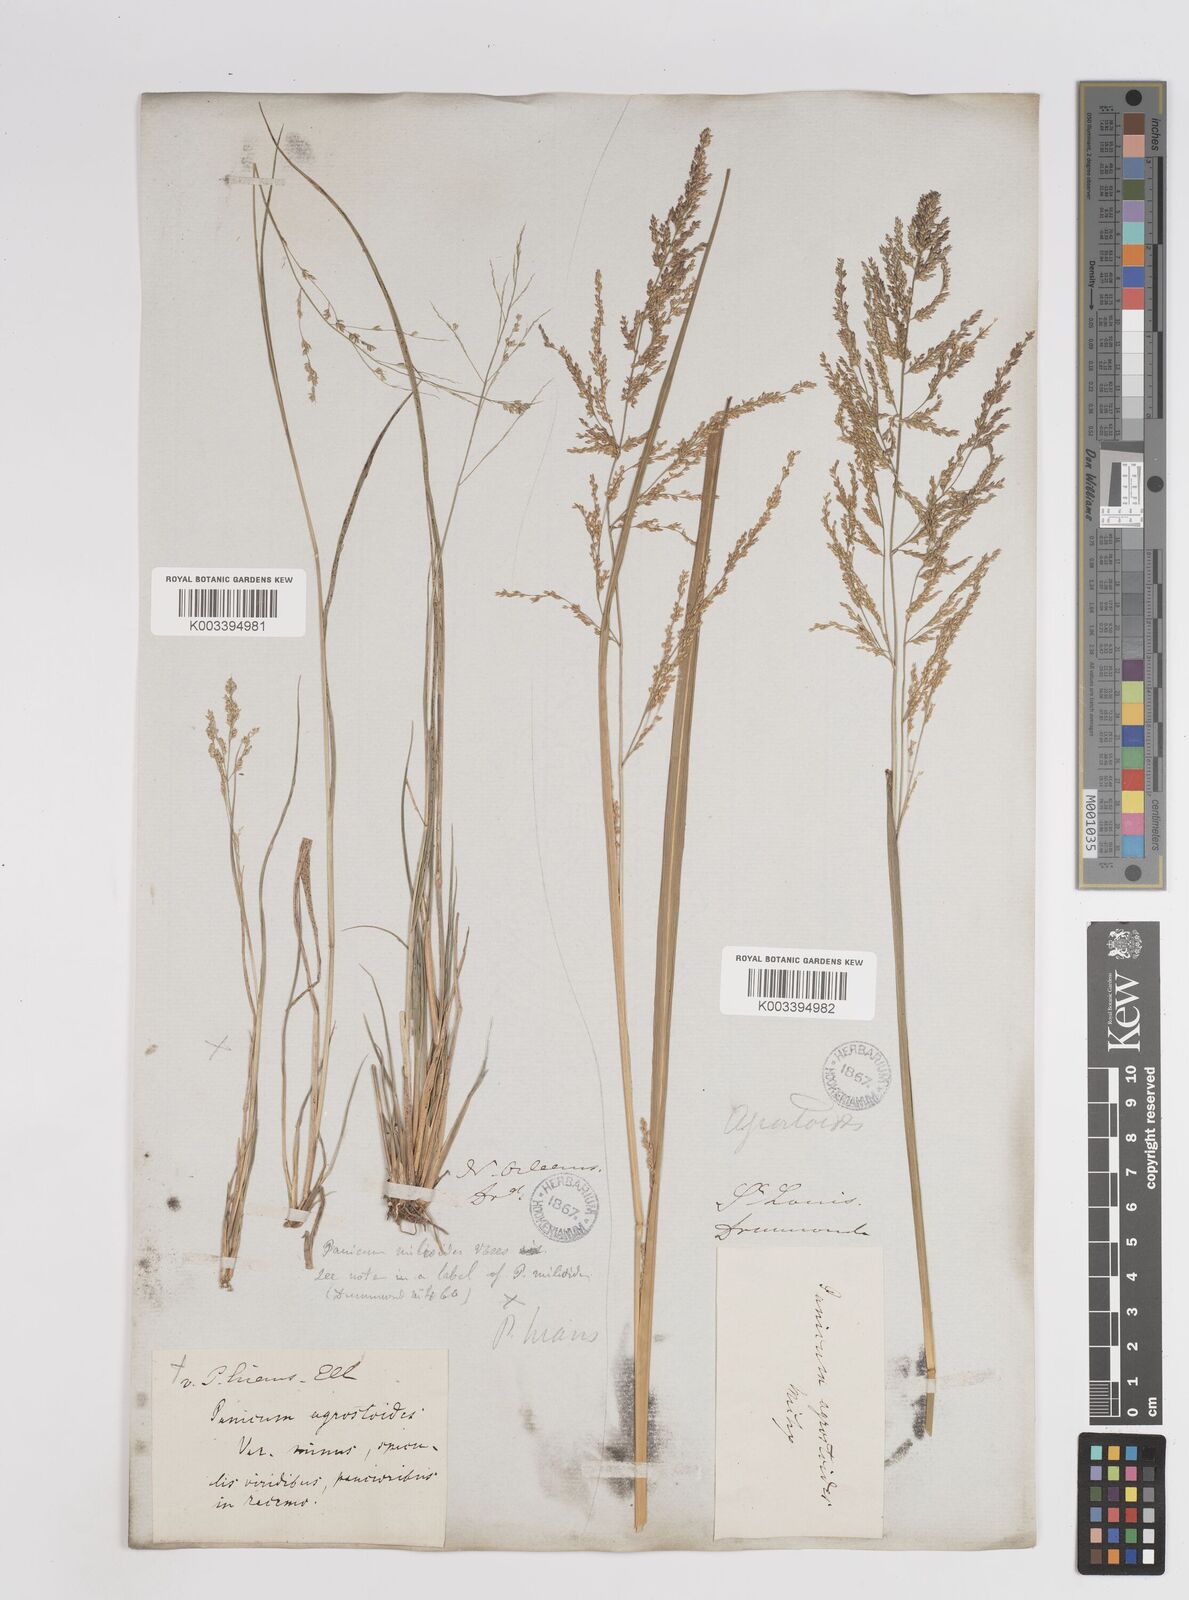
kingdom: Plantae
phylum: Tracheophyta
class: Liliopsida
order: Poales
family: Poaceae
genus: Steinchisma
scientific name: Steinchisma laxum
